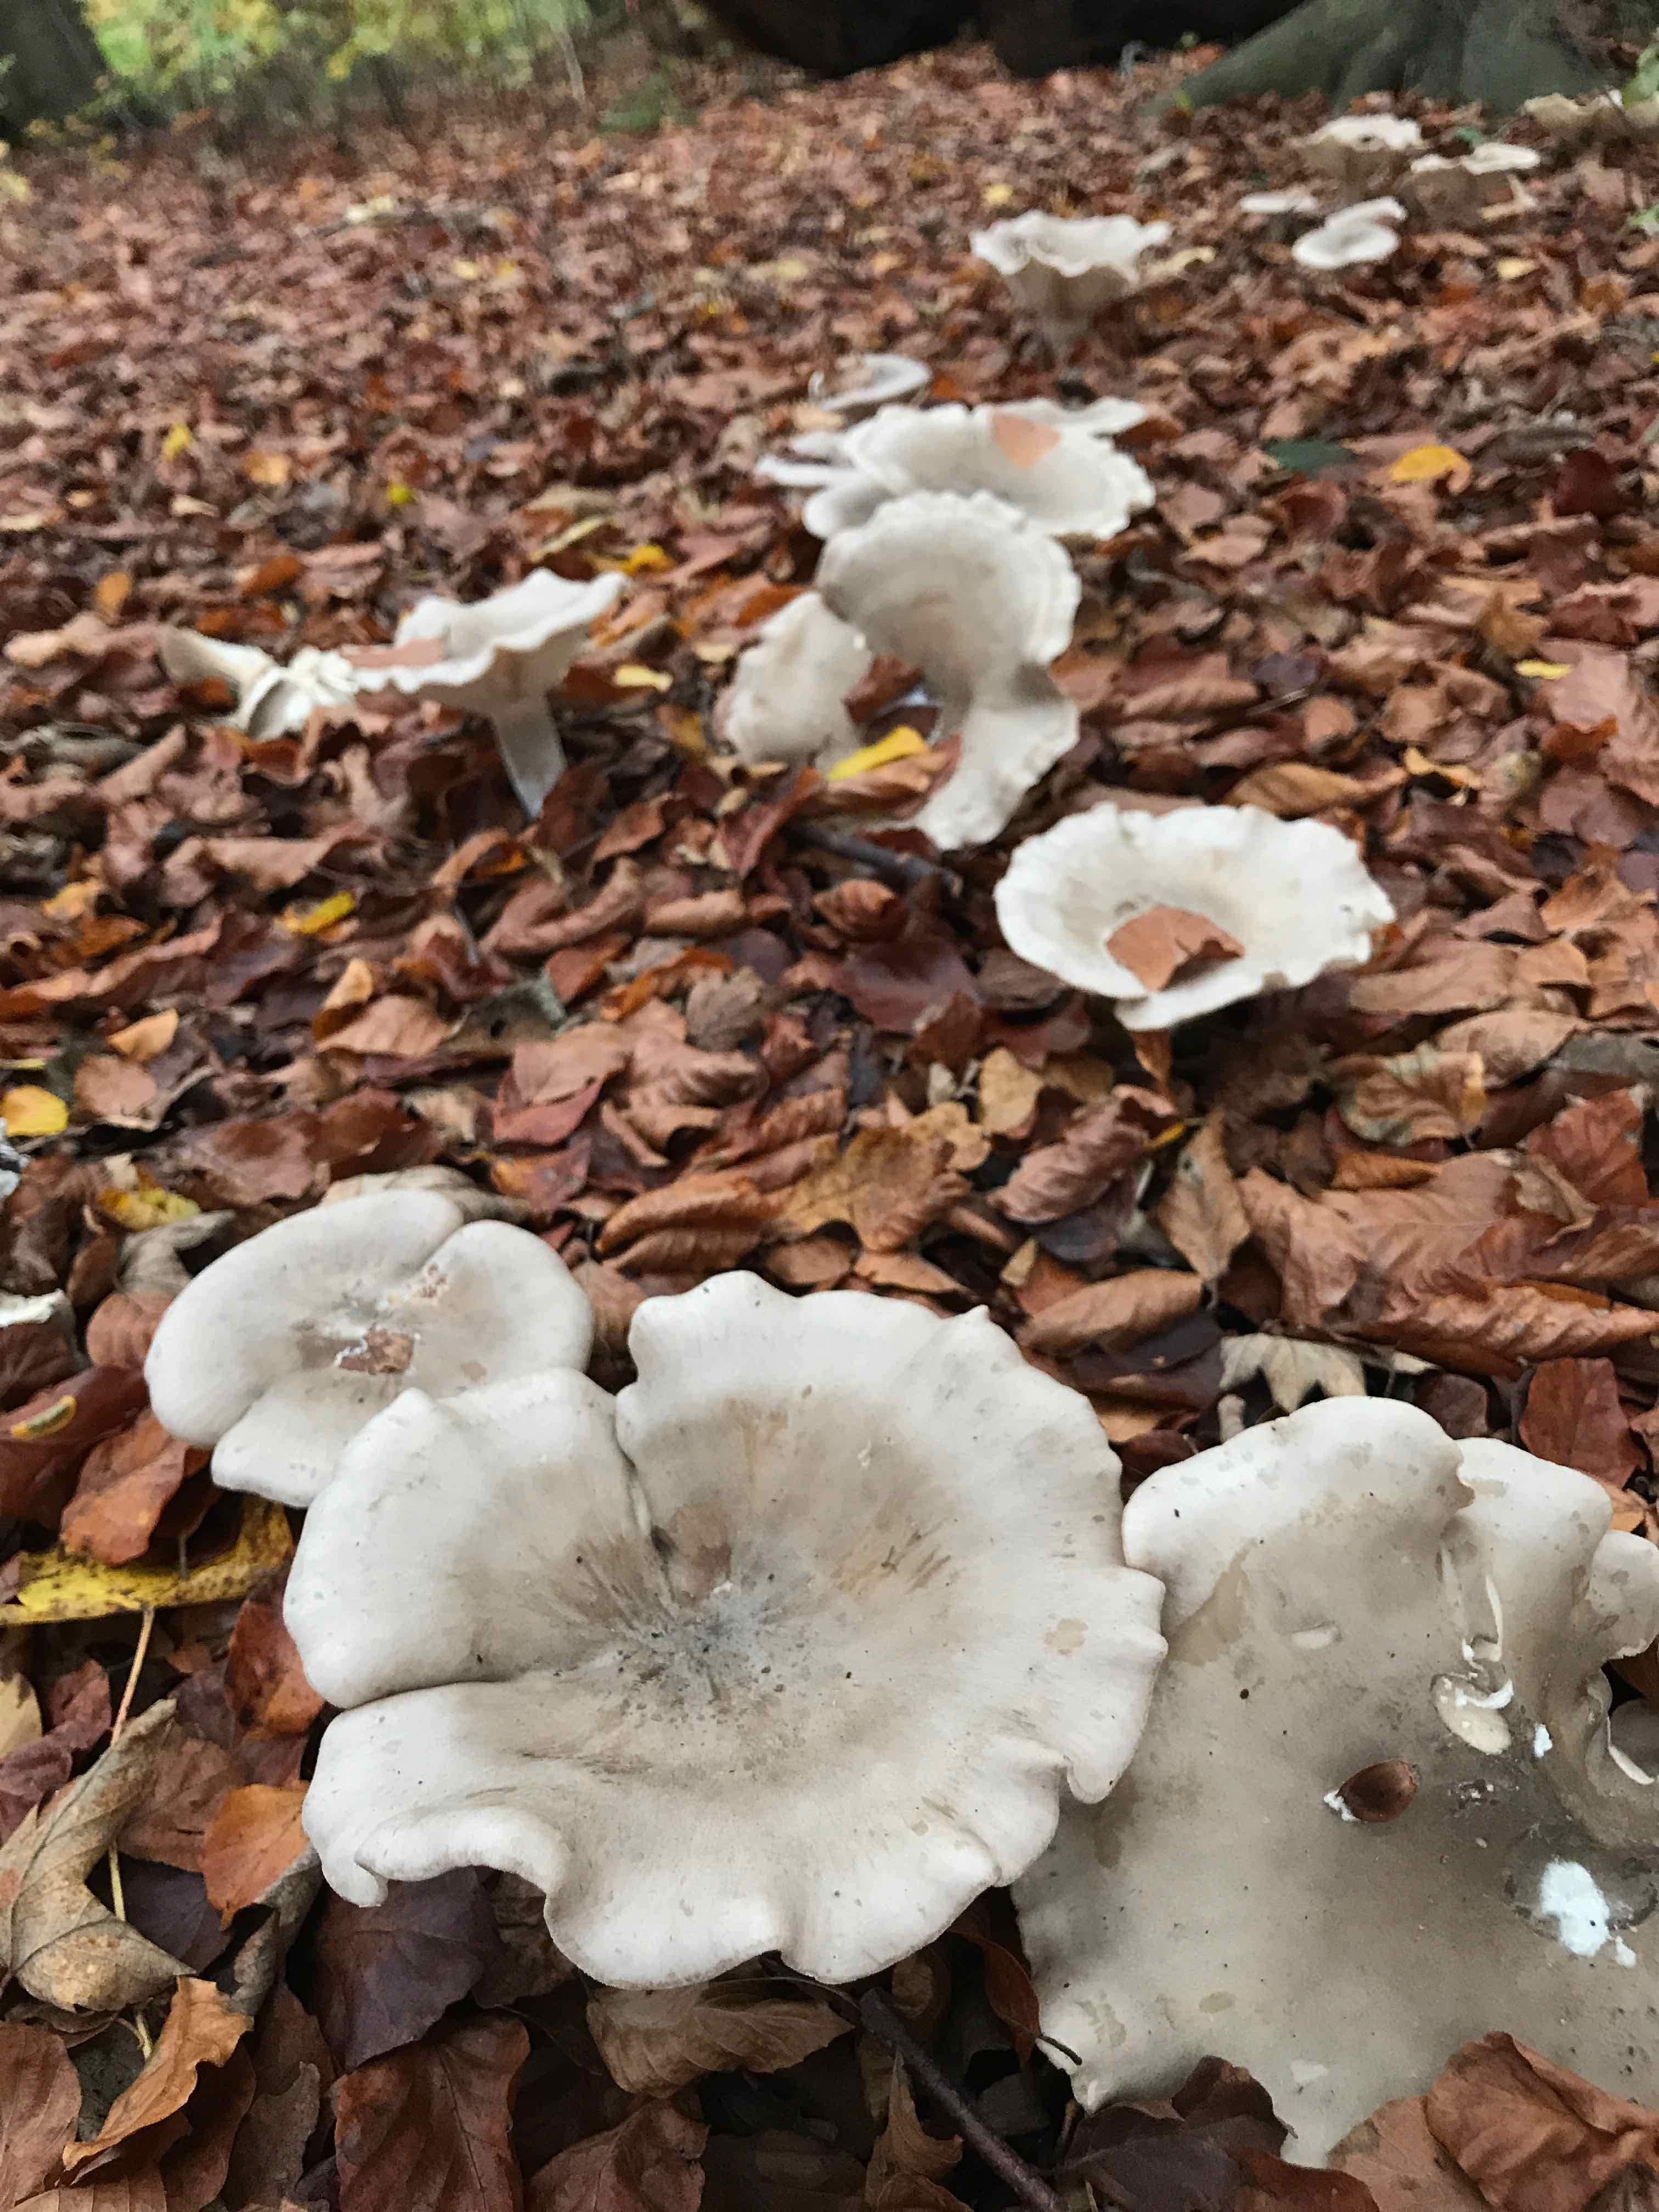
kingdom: Fungi
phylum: Basidiomycota
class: Agaricomycetes
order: Agaricales
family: Tricholomataceae
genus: Clitocybe
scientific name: Clitocybe nebularis
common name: tåge-tragthat
